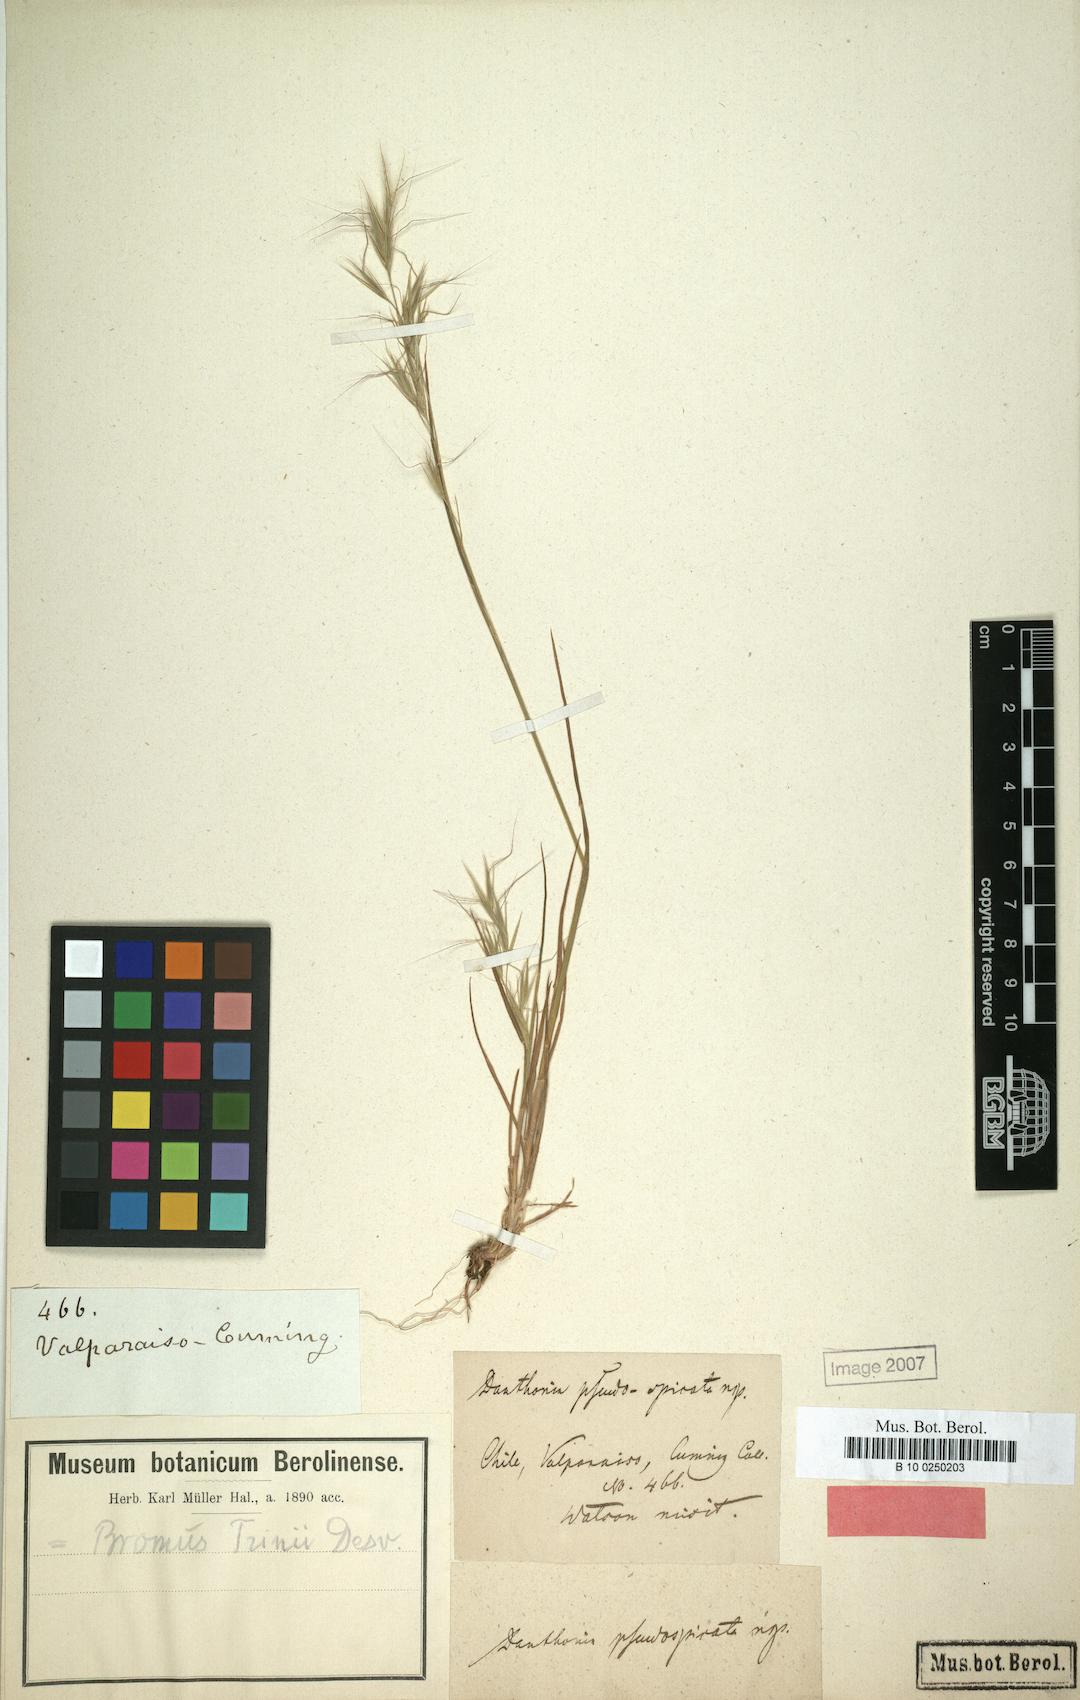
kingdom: Plantae
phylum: Tracheophyta
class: Liliopsida
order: Poales
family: Poaceae
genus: Bromus
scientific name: Bromus berteroanus
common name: Chilean chess
